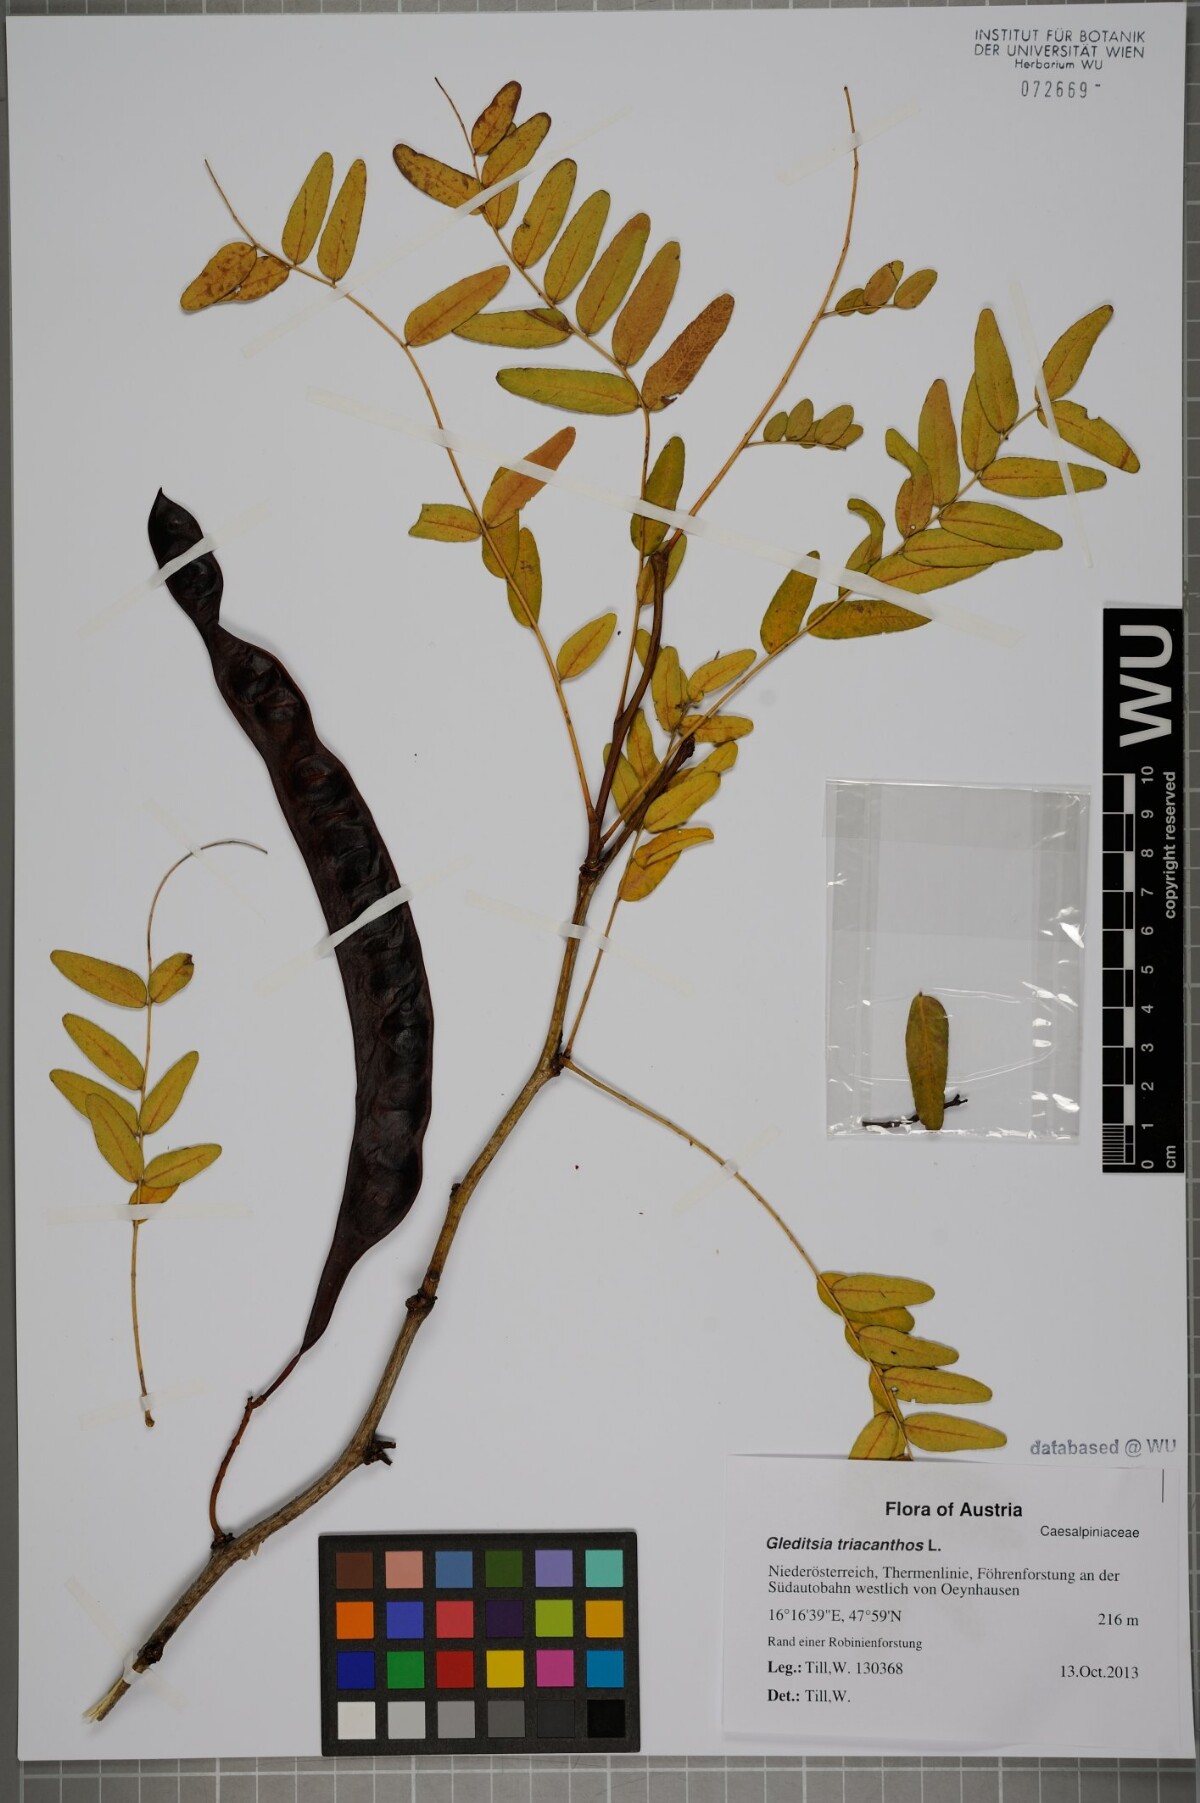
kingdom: Plantae
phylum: Tracheophyta
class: Magnoliopsida
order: Fabales
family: Fabaceae
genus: Gleditsia
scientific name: Gleditsia triacanthos
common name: Common honeylocust
